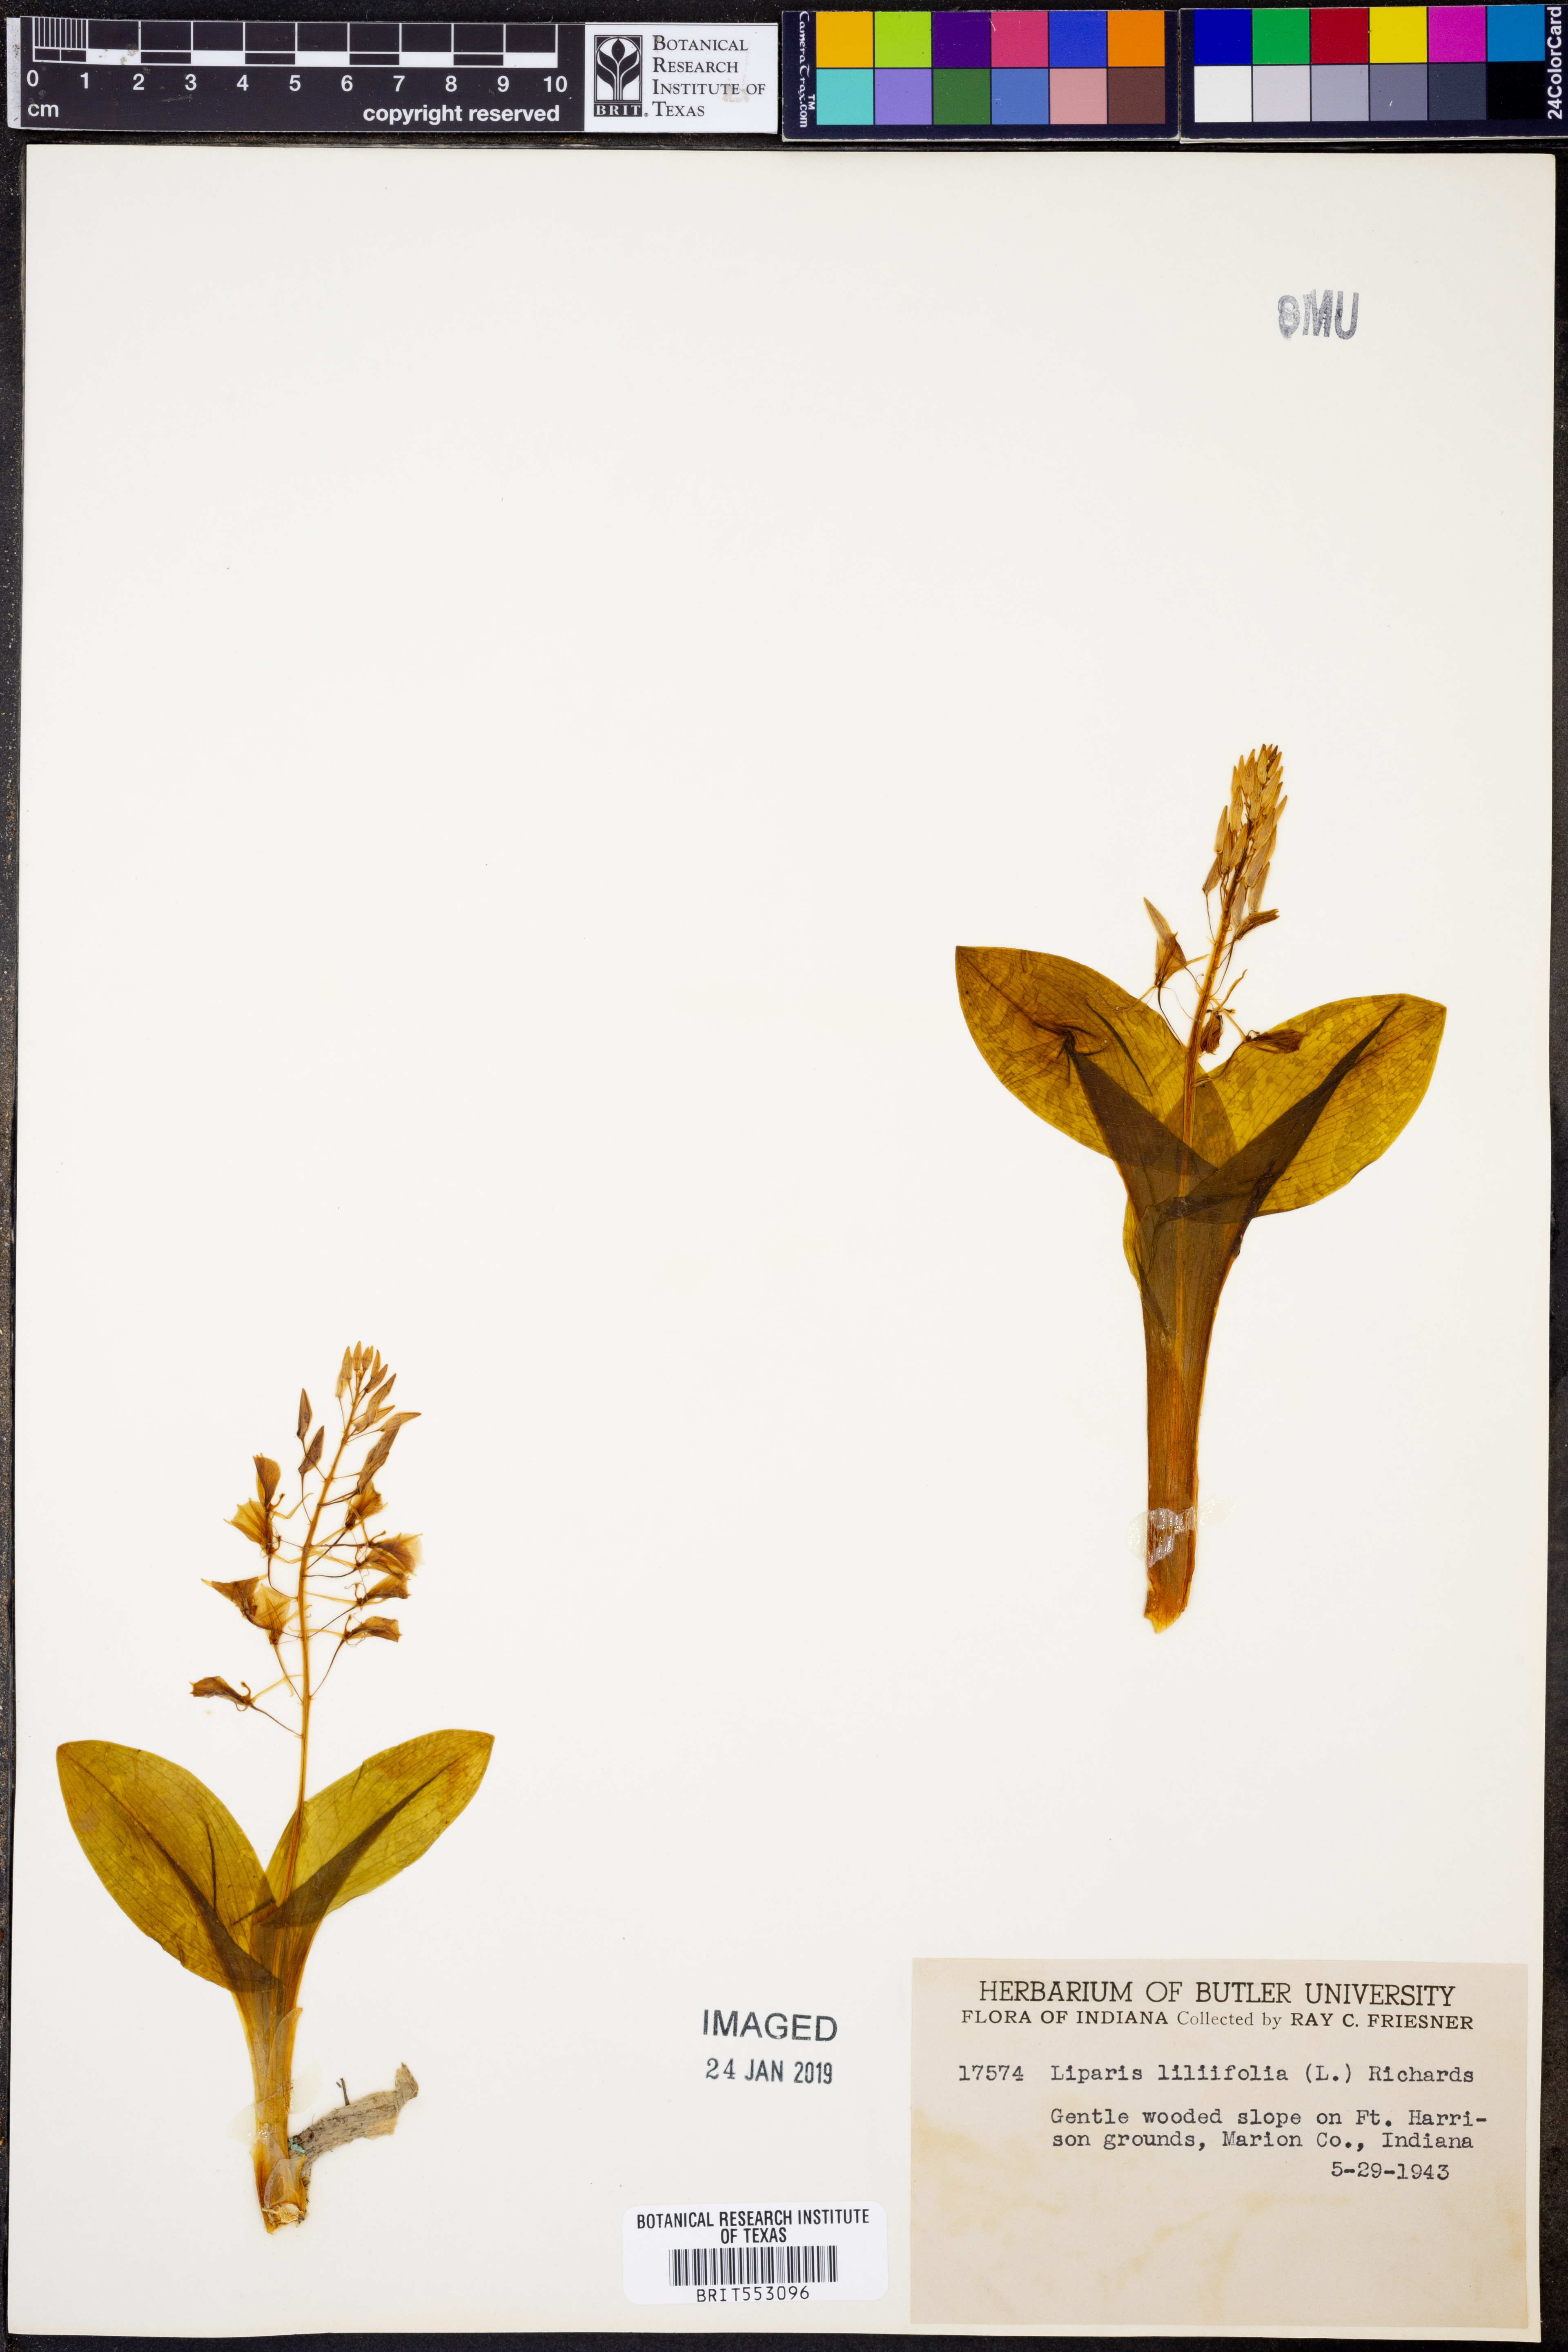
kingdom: Plantae
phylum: Tracheophyta
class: Liliopsida
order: Asparagales
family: Orchidaceae
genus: Liparis
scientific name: Liparis liliifolia
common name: Brown wide-lip orchid
